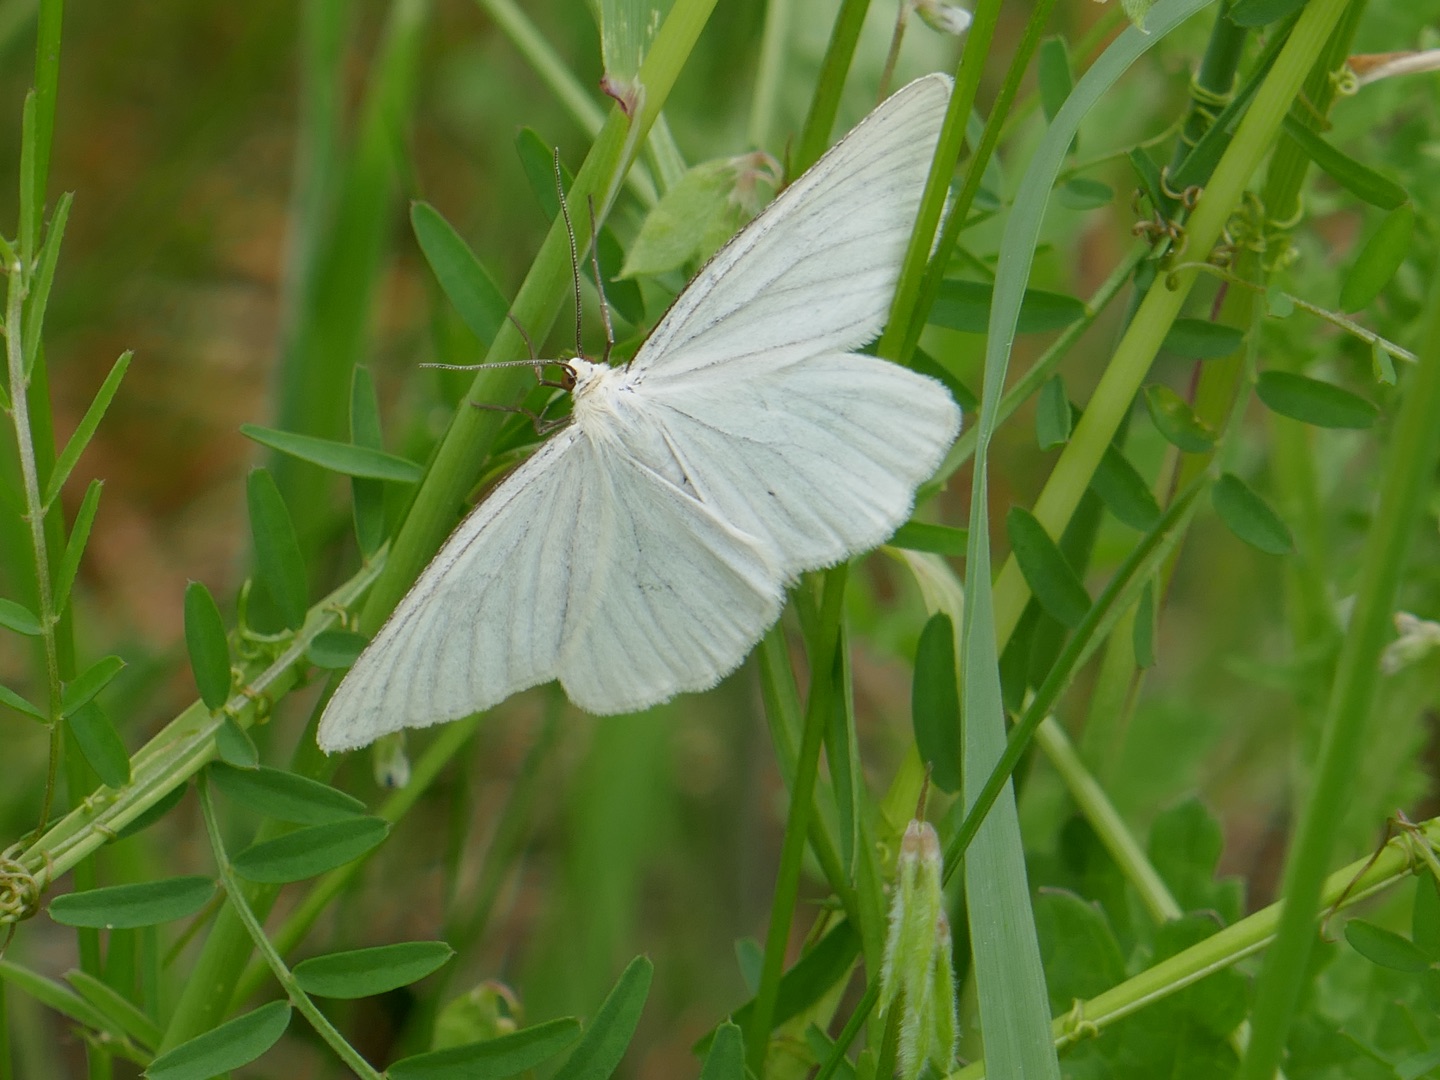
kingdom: Animalia
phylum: Arthropoda
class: Insecta
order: Lepidoptera
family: Geometridae
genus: Siona
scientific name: Siona lineata
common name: Hvidvingemåler
